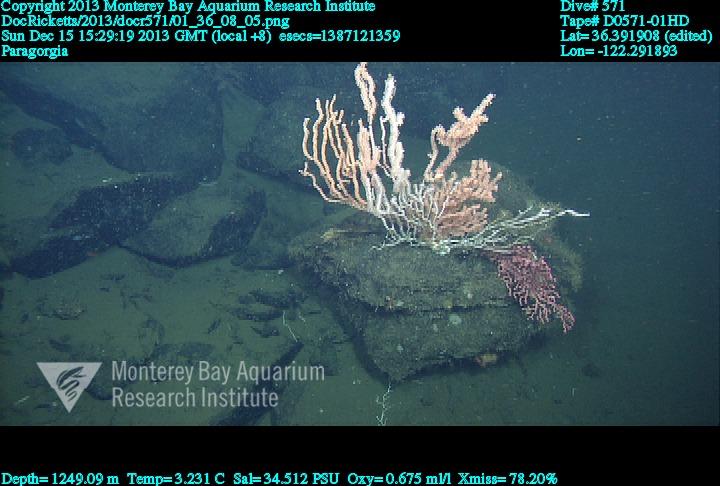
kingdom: Animalia
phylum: Cnidaria
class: Anthozoa
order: Scleralcyonacea
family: Coralliidae
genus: Paragorgia
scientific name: Paragorgia
